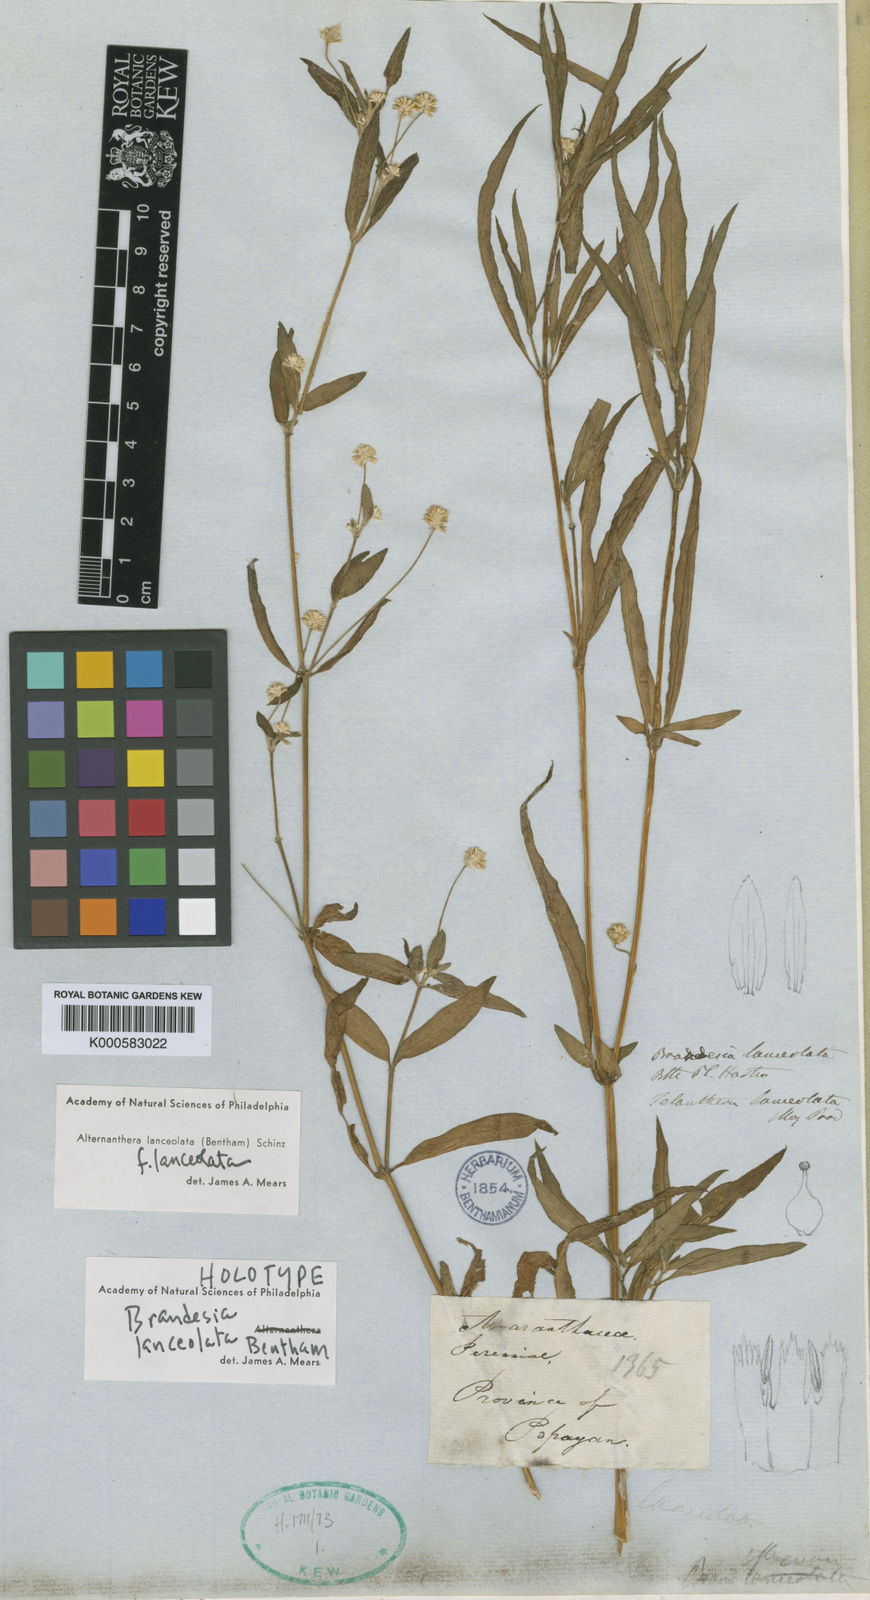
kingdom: Plantae
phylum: Tracheophyta
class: Magnoliopsida
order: Caryophyllales
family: Amaranthaceae
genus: Alternanthera
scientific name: Alternanthera lanceolata
